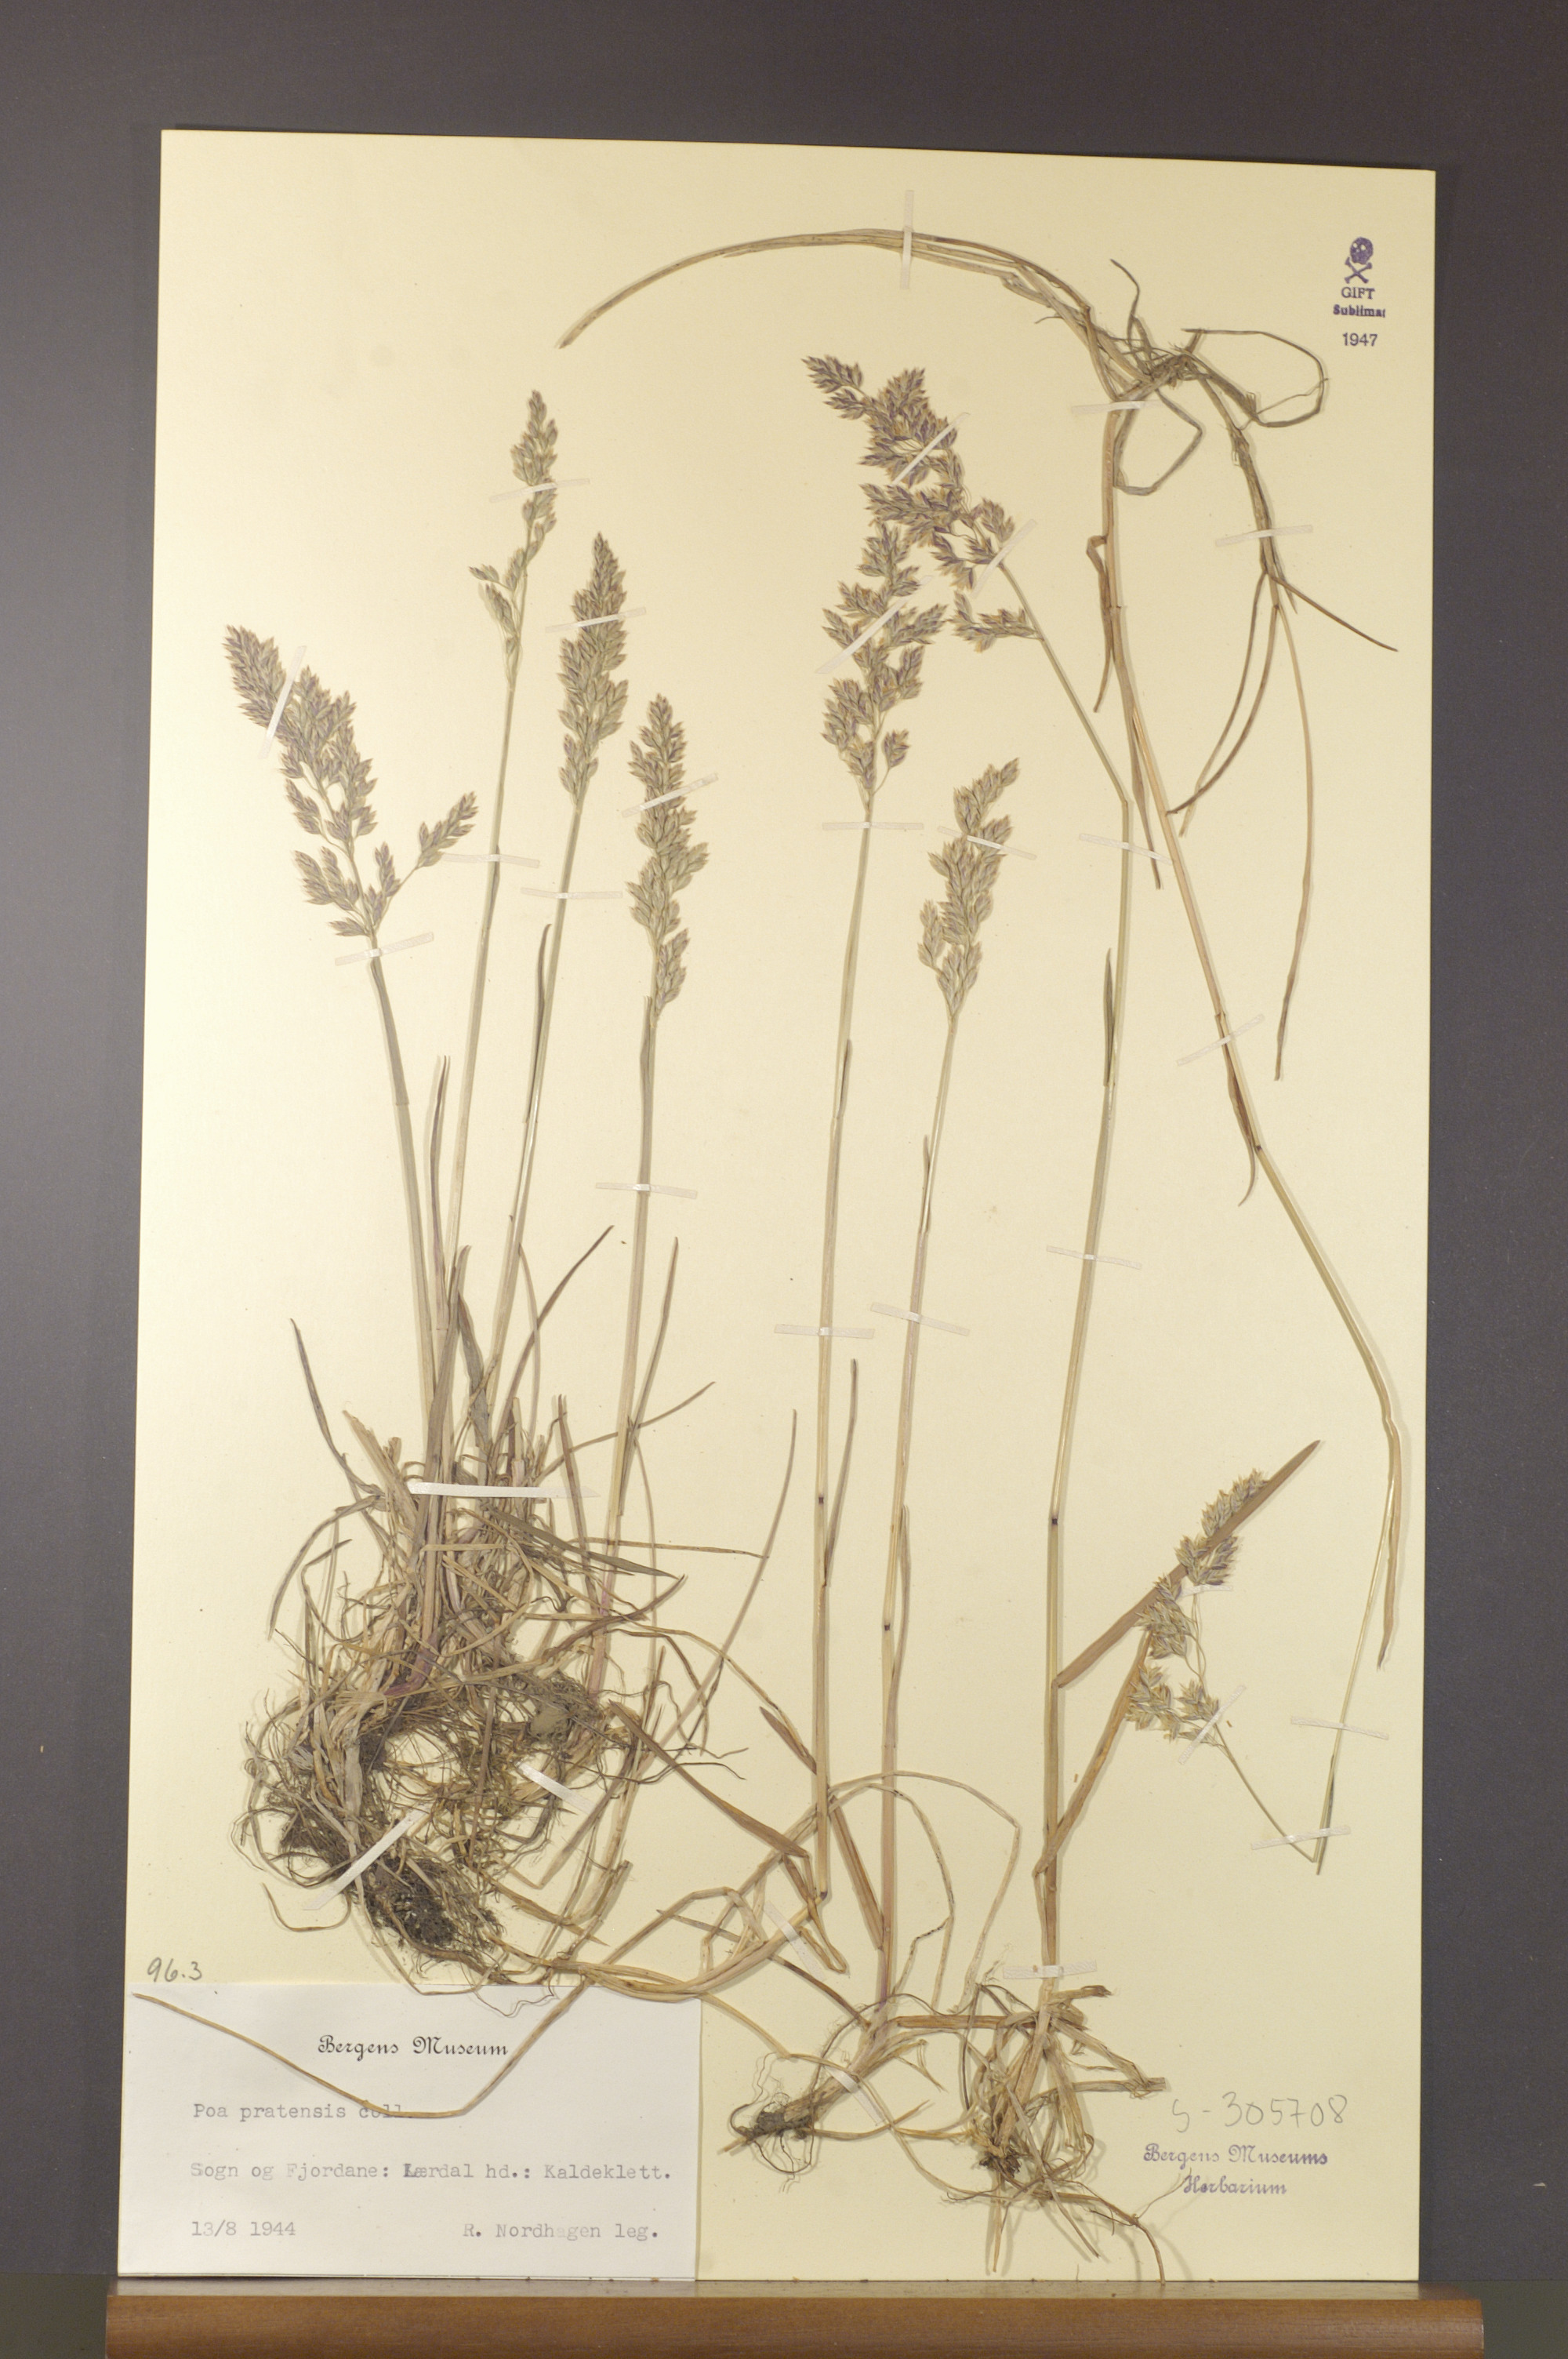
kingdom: Plantae
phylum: Tracheophyta
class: Liliopsida
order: Poales
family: Poaceae
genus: Poa
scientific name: Poa pratensis
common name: Kentucky bluegrass
